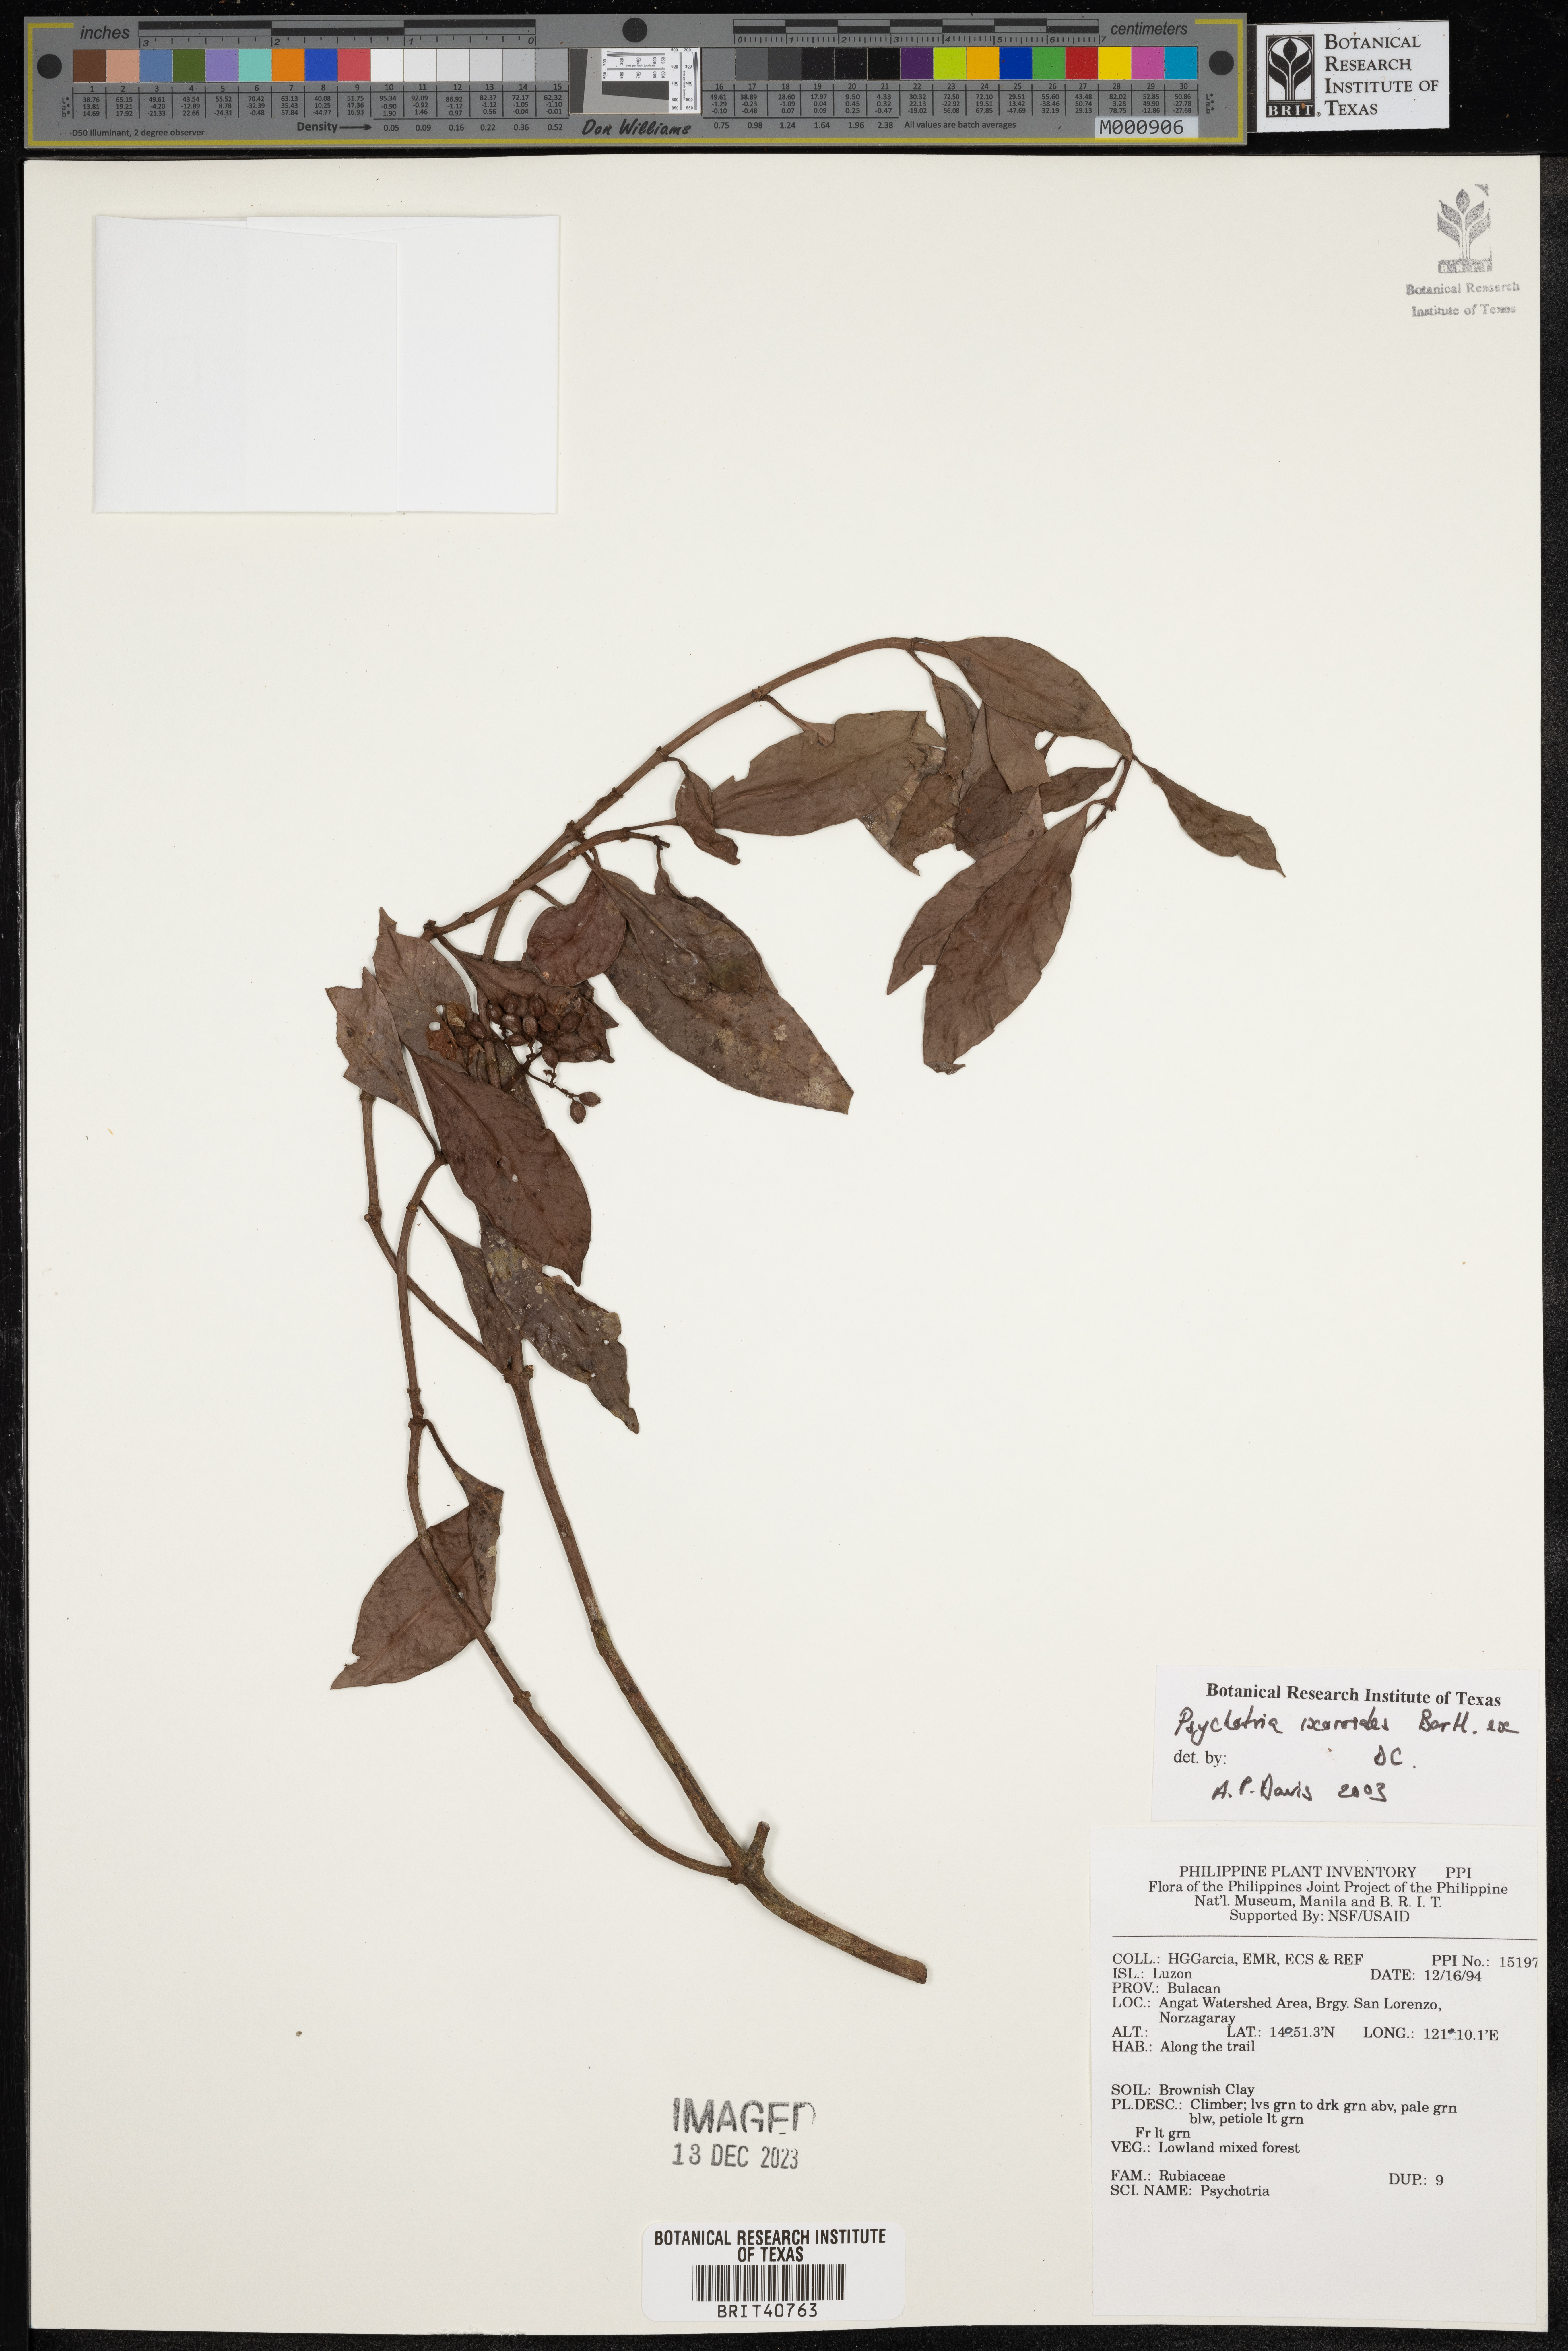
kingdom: Plantae
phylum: Tracheophyta
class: Magnoliopsida
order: Gentianales
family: Rubiaceae
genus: Psychotria
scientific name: Psychotria ixoroides
